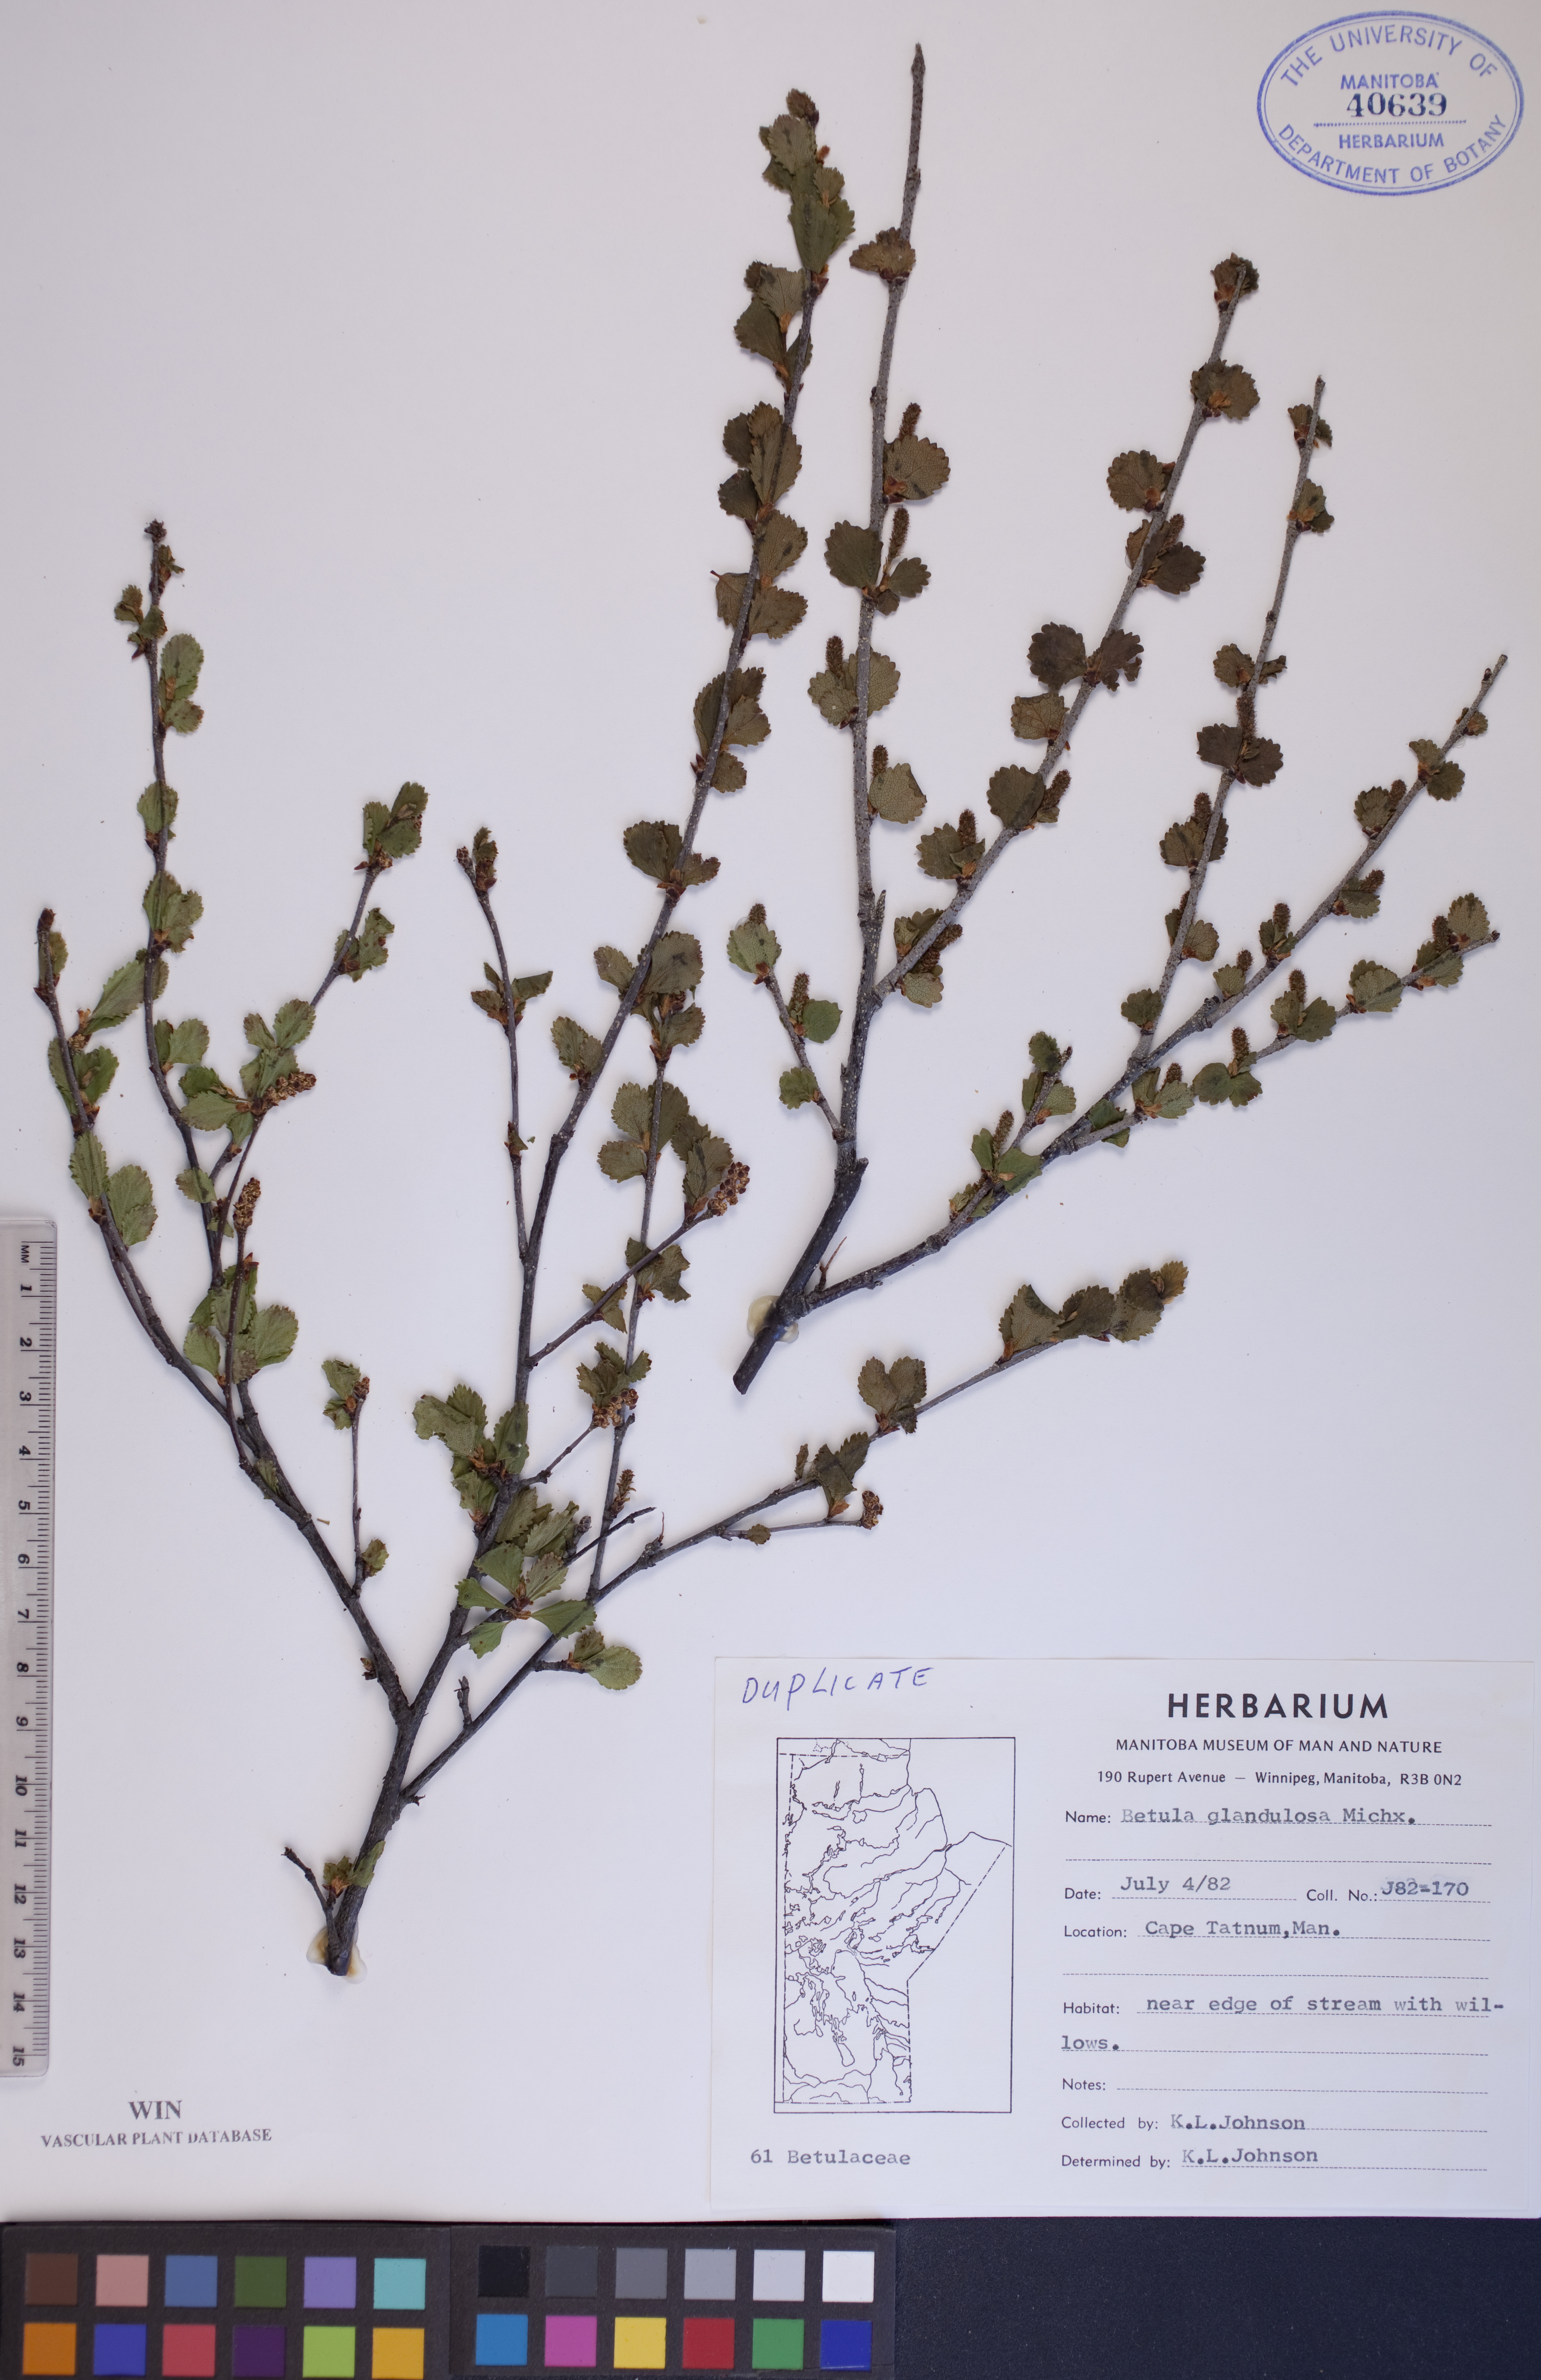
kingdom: Plantae
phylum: Tracheophyta
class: Magnoliopsida
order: Fagales
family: Betulaceae
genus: Betula
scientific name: Betula glandulosa
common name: Dwarf birch
